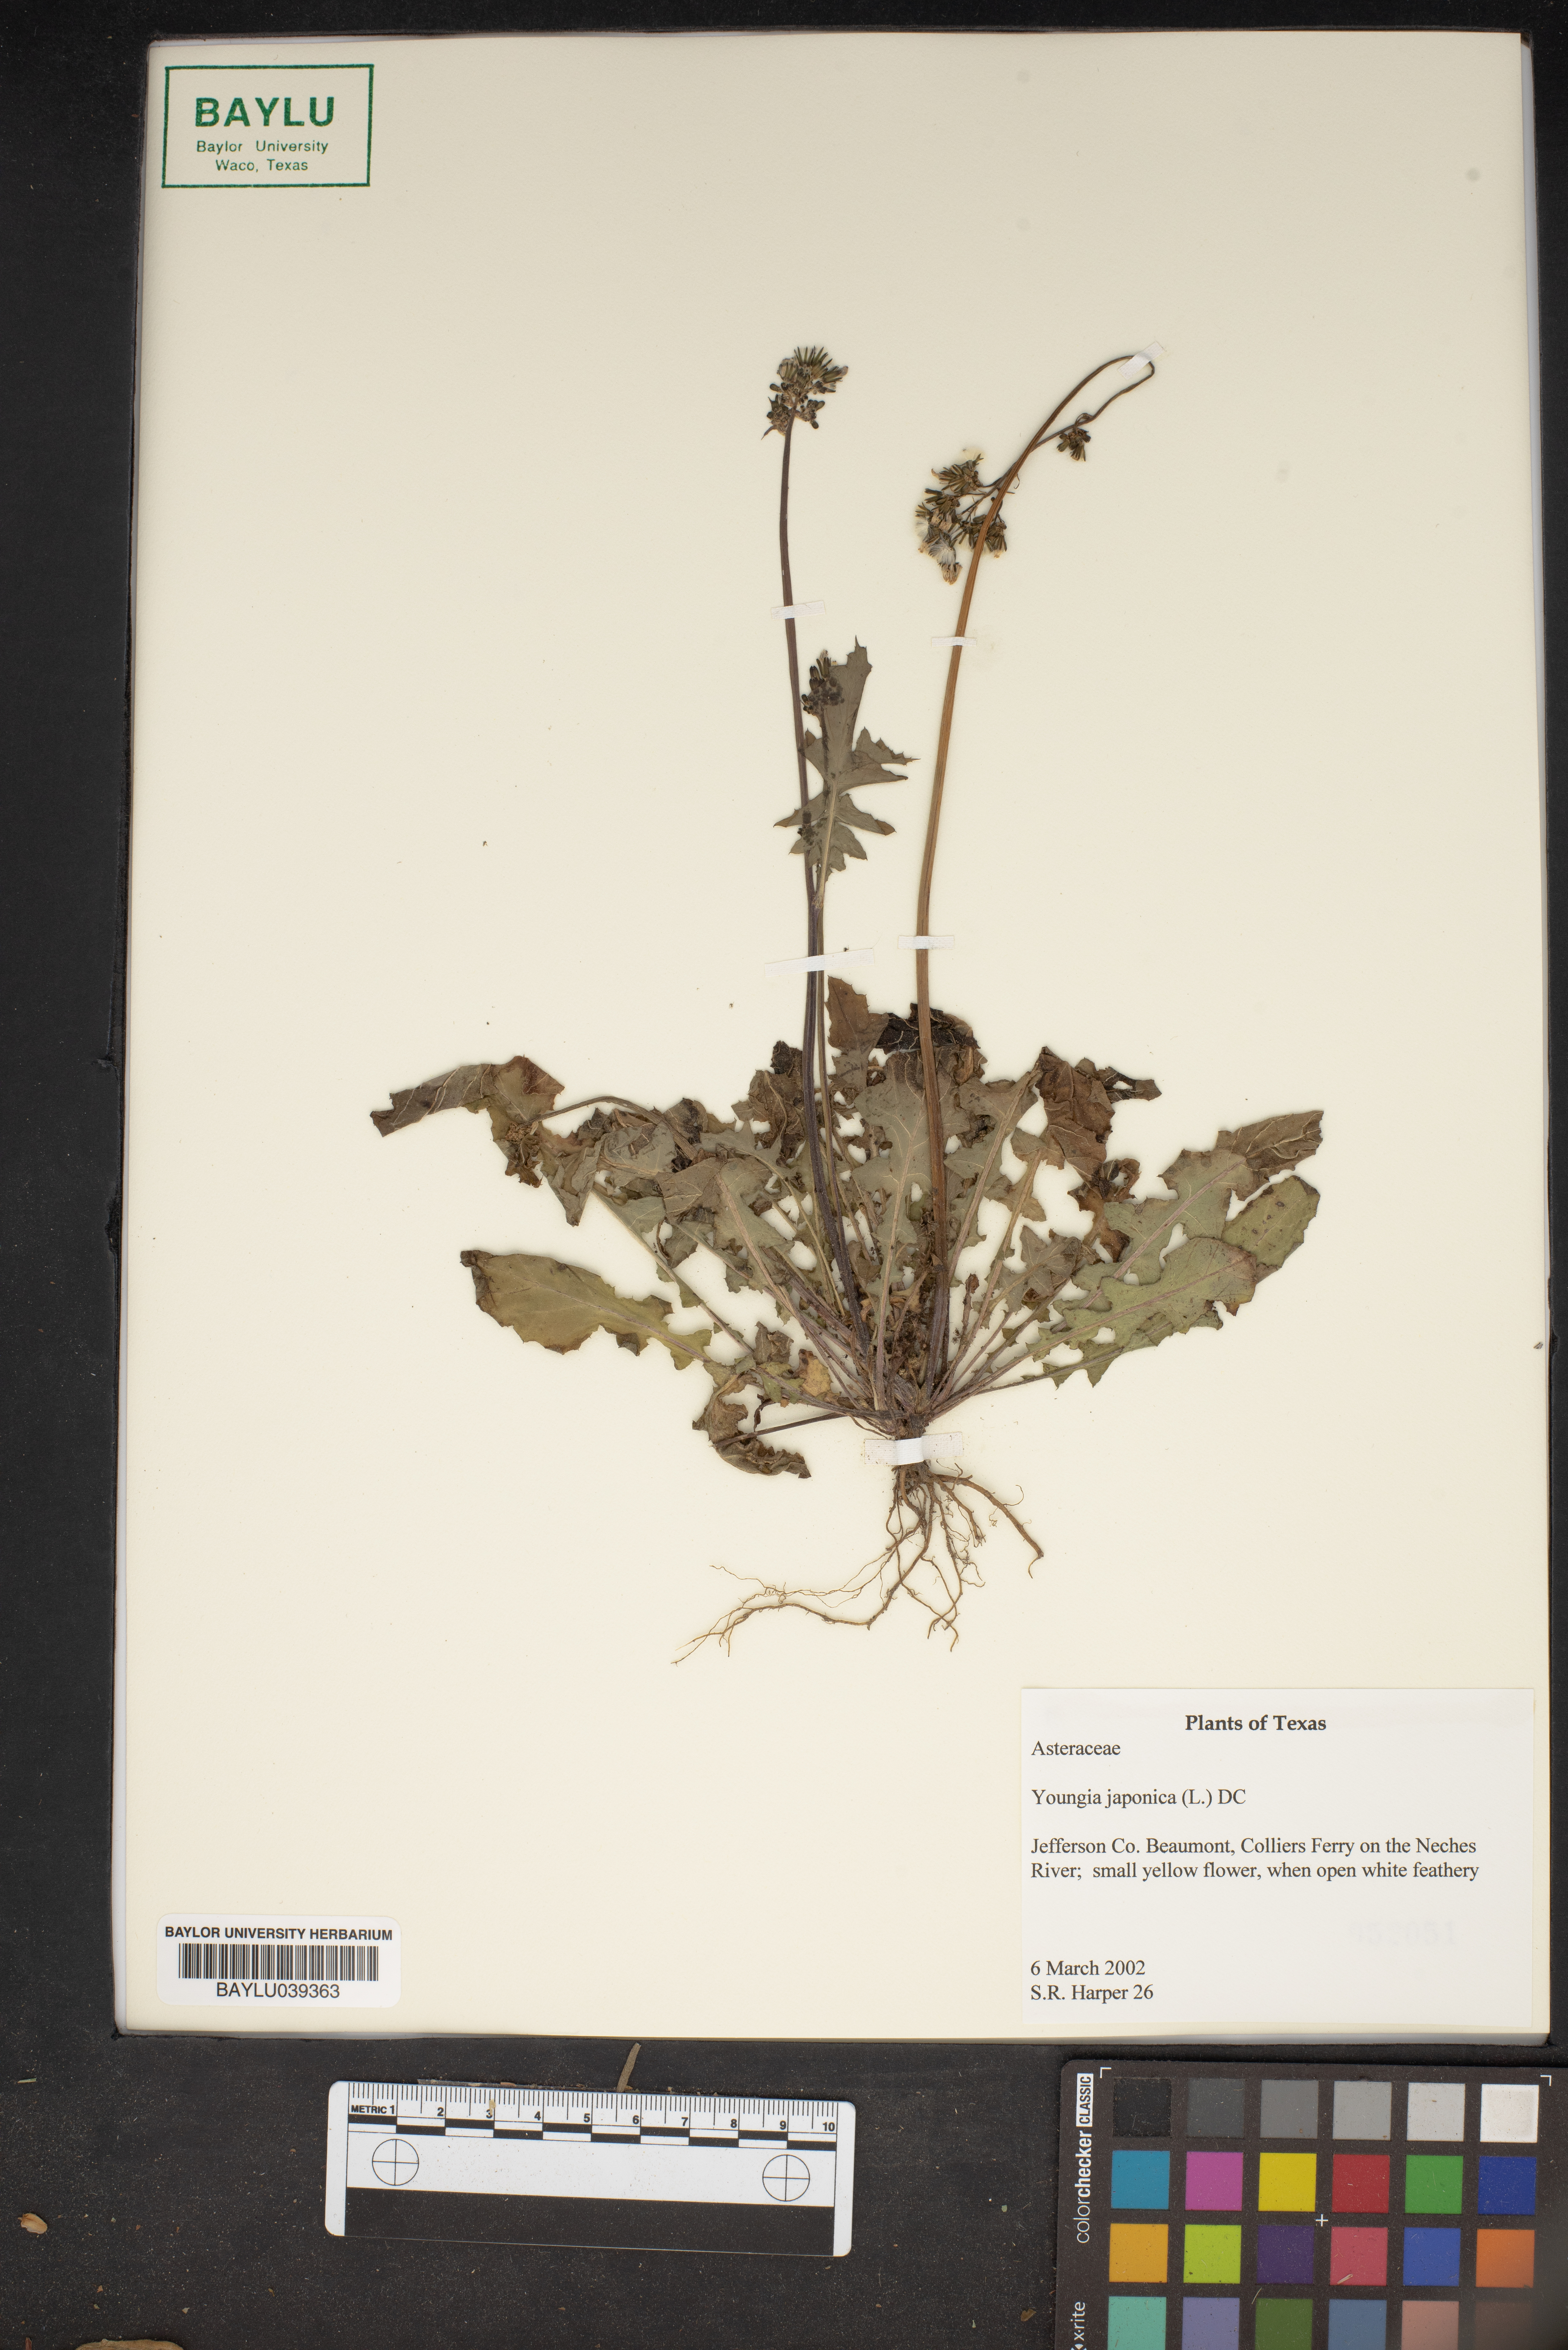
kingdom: Plantae
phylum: Tracheophyta
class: Magnoliopsida
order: Asterales
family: Asteraceae
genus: Youngia
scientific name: Youngia japonica
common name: Oriental false hawksbeard
